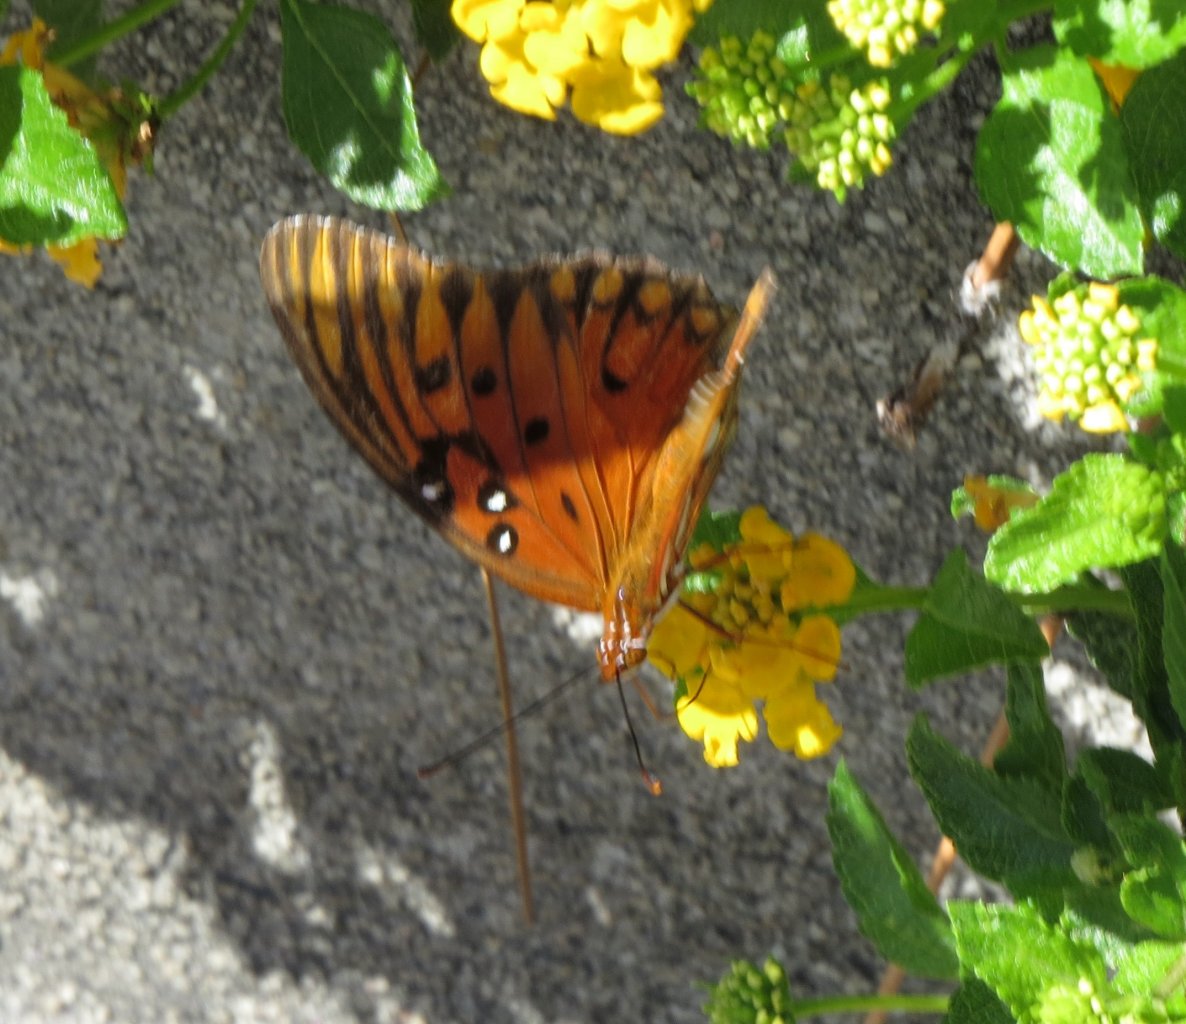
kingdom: Animalia
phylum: Arthropoda
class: Insecta
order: Lepidoptera
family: Nymphalidae
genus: Dione
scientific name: Dione vanillae
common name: Gulf Fritillary
